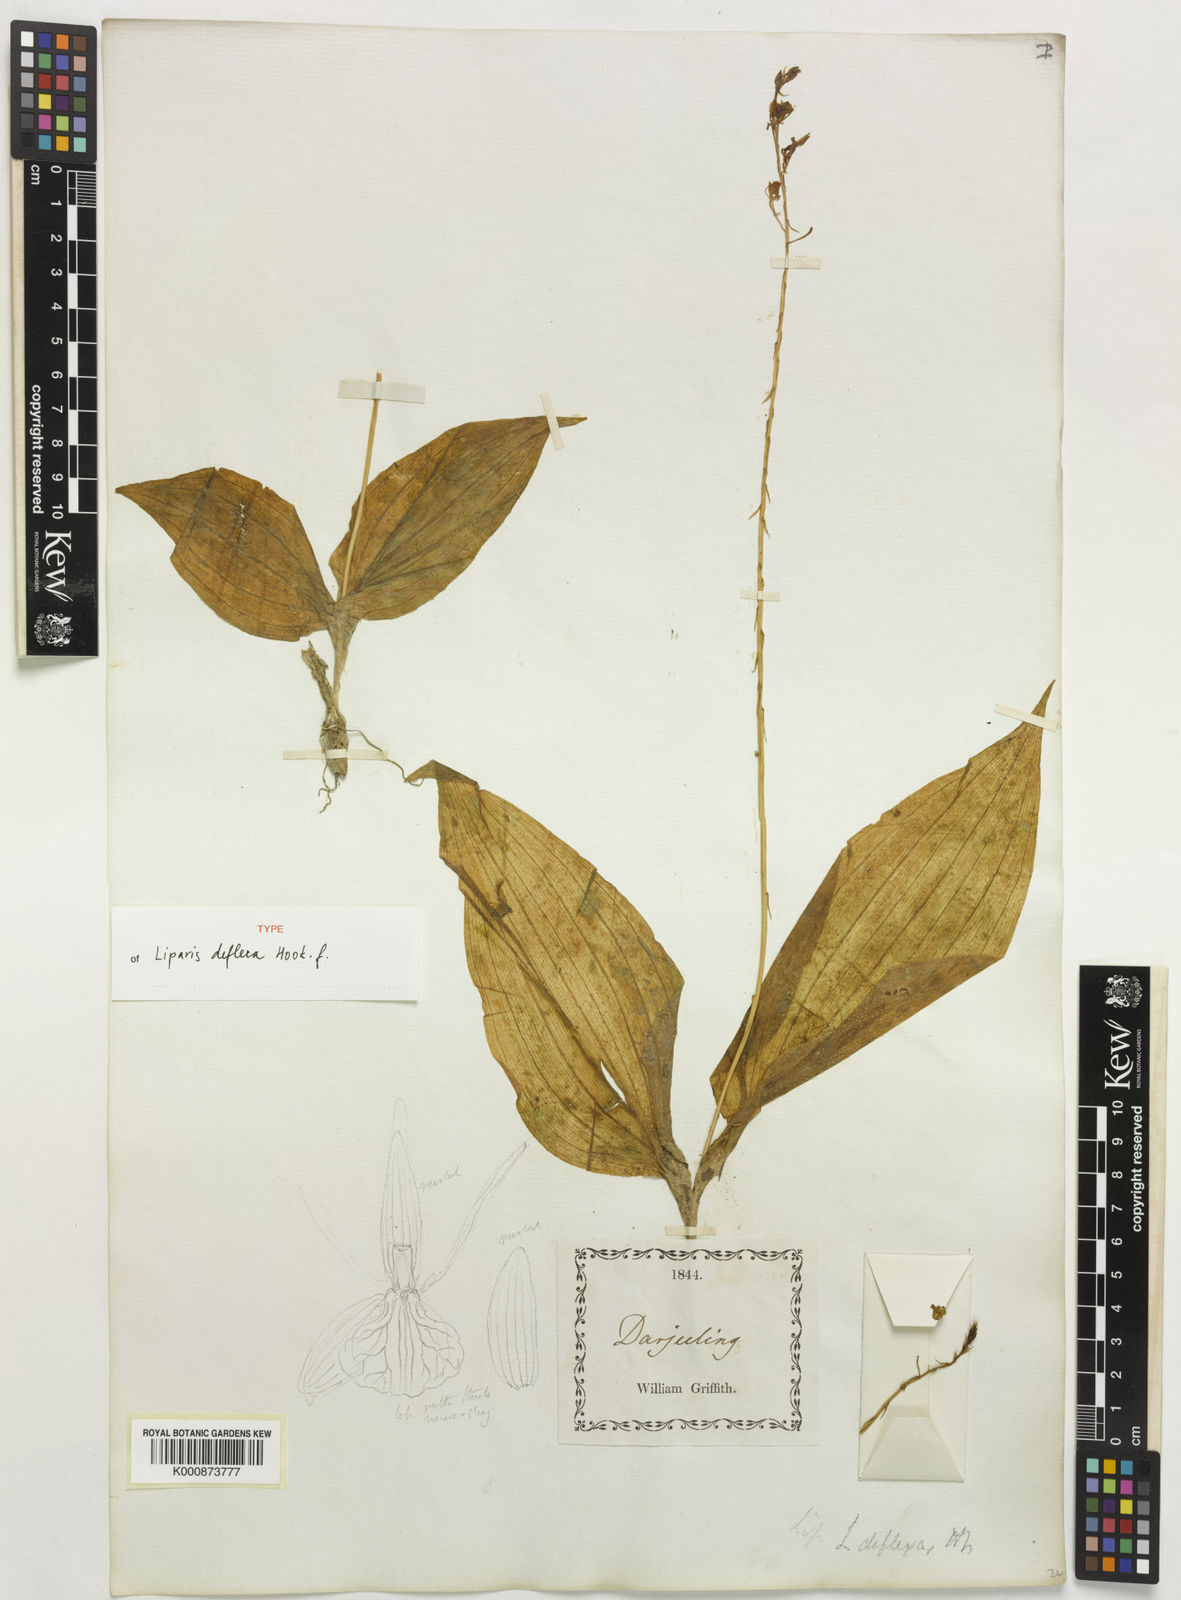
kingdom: Plantae
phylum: Tracheophyta
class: Liliopsida
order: Asparagales
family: Orchidaceae
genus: Liparis
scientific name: Liparis deflexa
